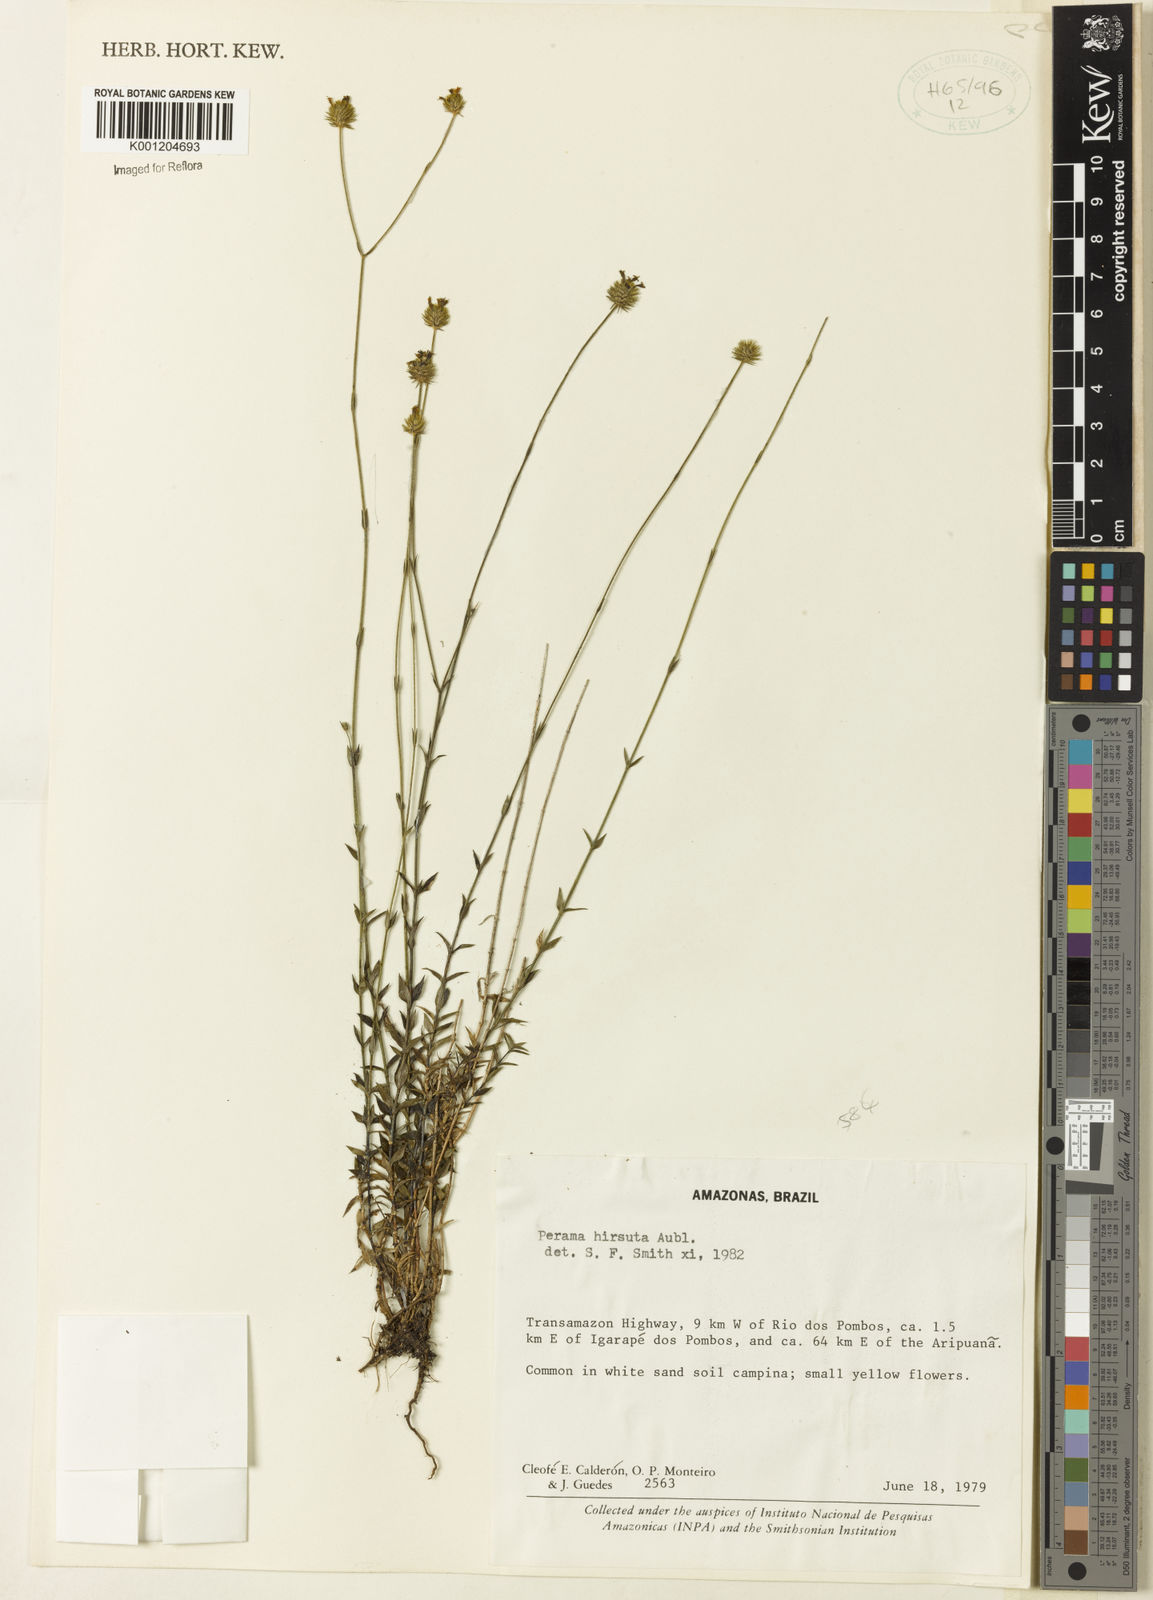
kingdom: Plantae
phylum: Tracheophyta
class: Magnoliopsida
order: Gentianales
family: Rubiaceae
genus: Perama
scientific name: Perama hirsuta
